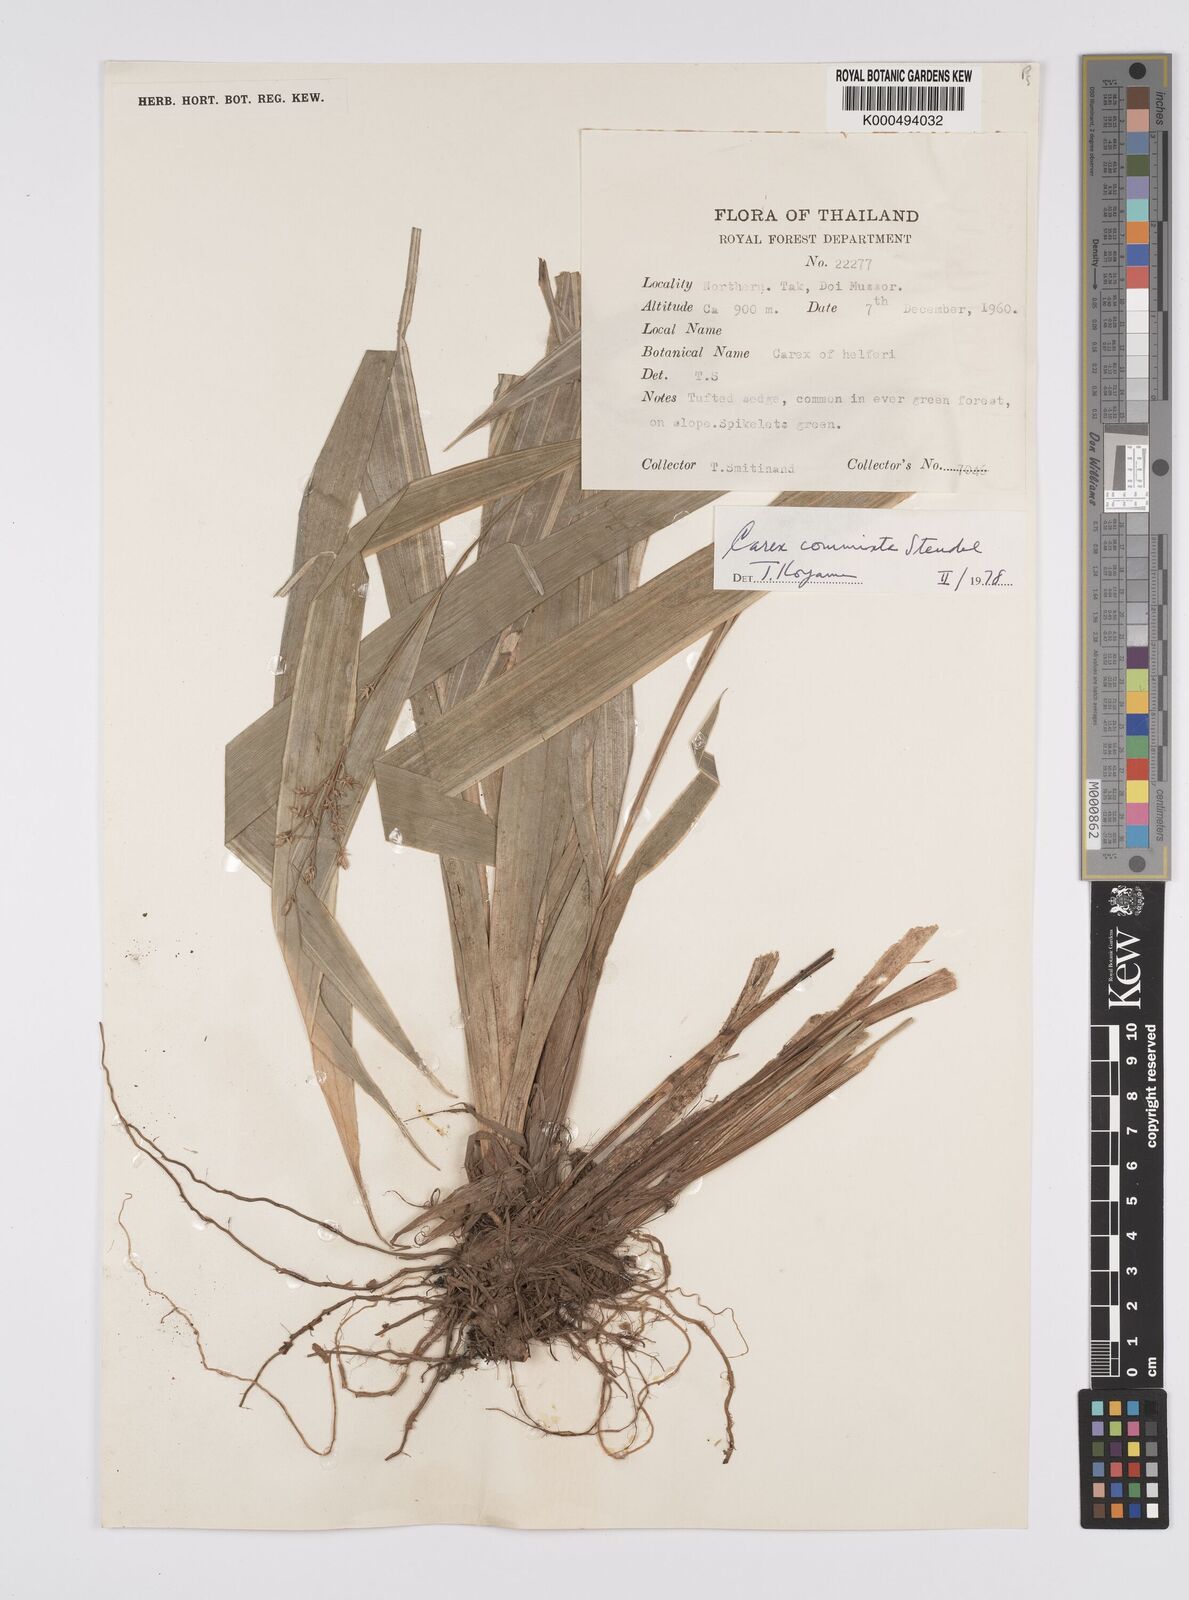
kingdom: Plantae
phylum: Tracheophyta
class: Liliopsida
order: Poales
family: Cyperaceae
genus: Carex
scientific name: Carex commixta
